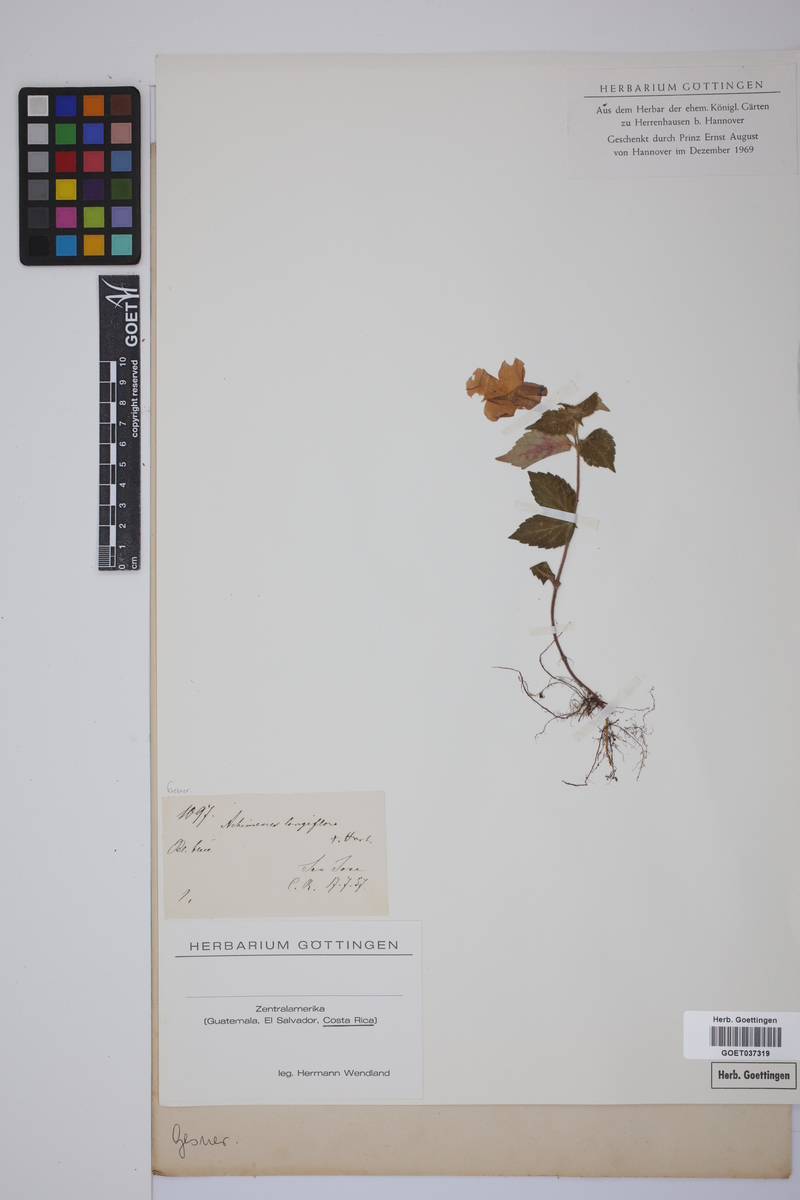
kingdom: Plantae
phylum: Tracheophyta
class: Magnoliopsida
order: Lamiales
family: Gesneriaceae
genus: Achimenes
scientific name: Achimenes longiflora
